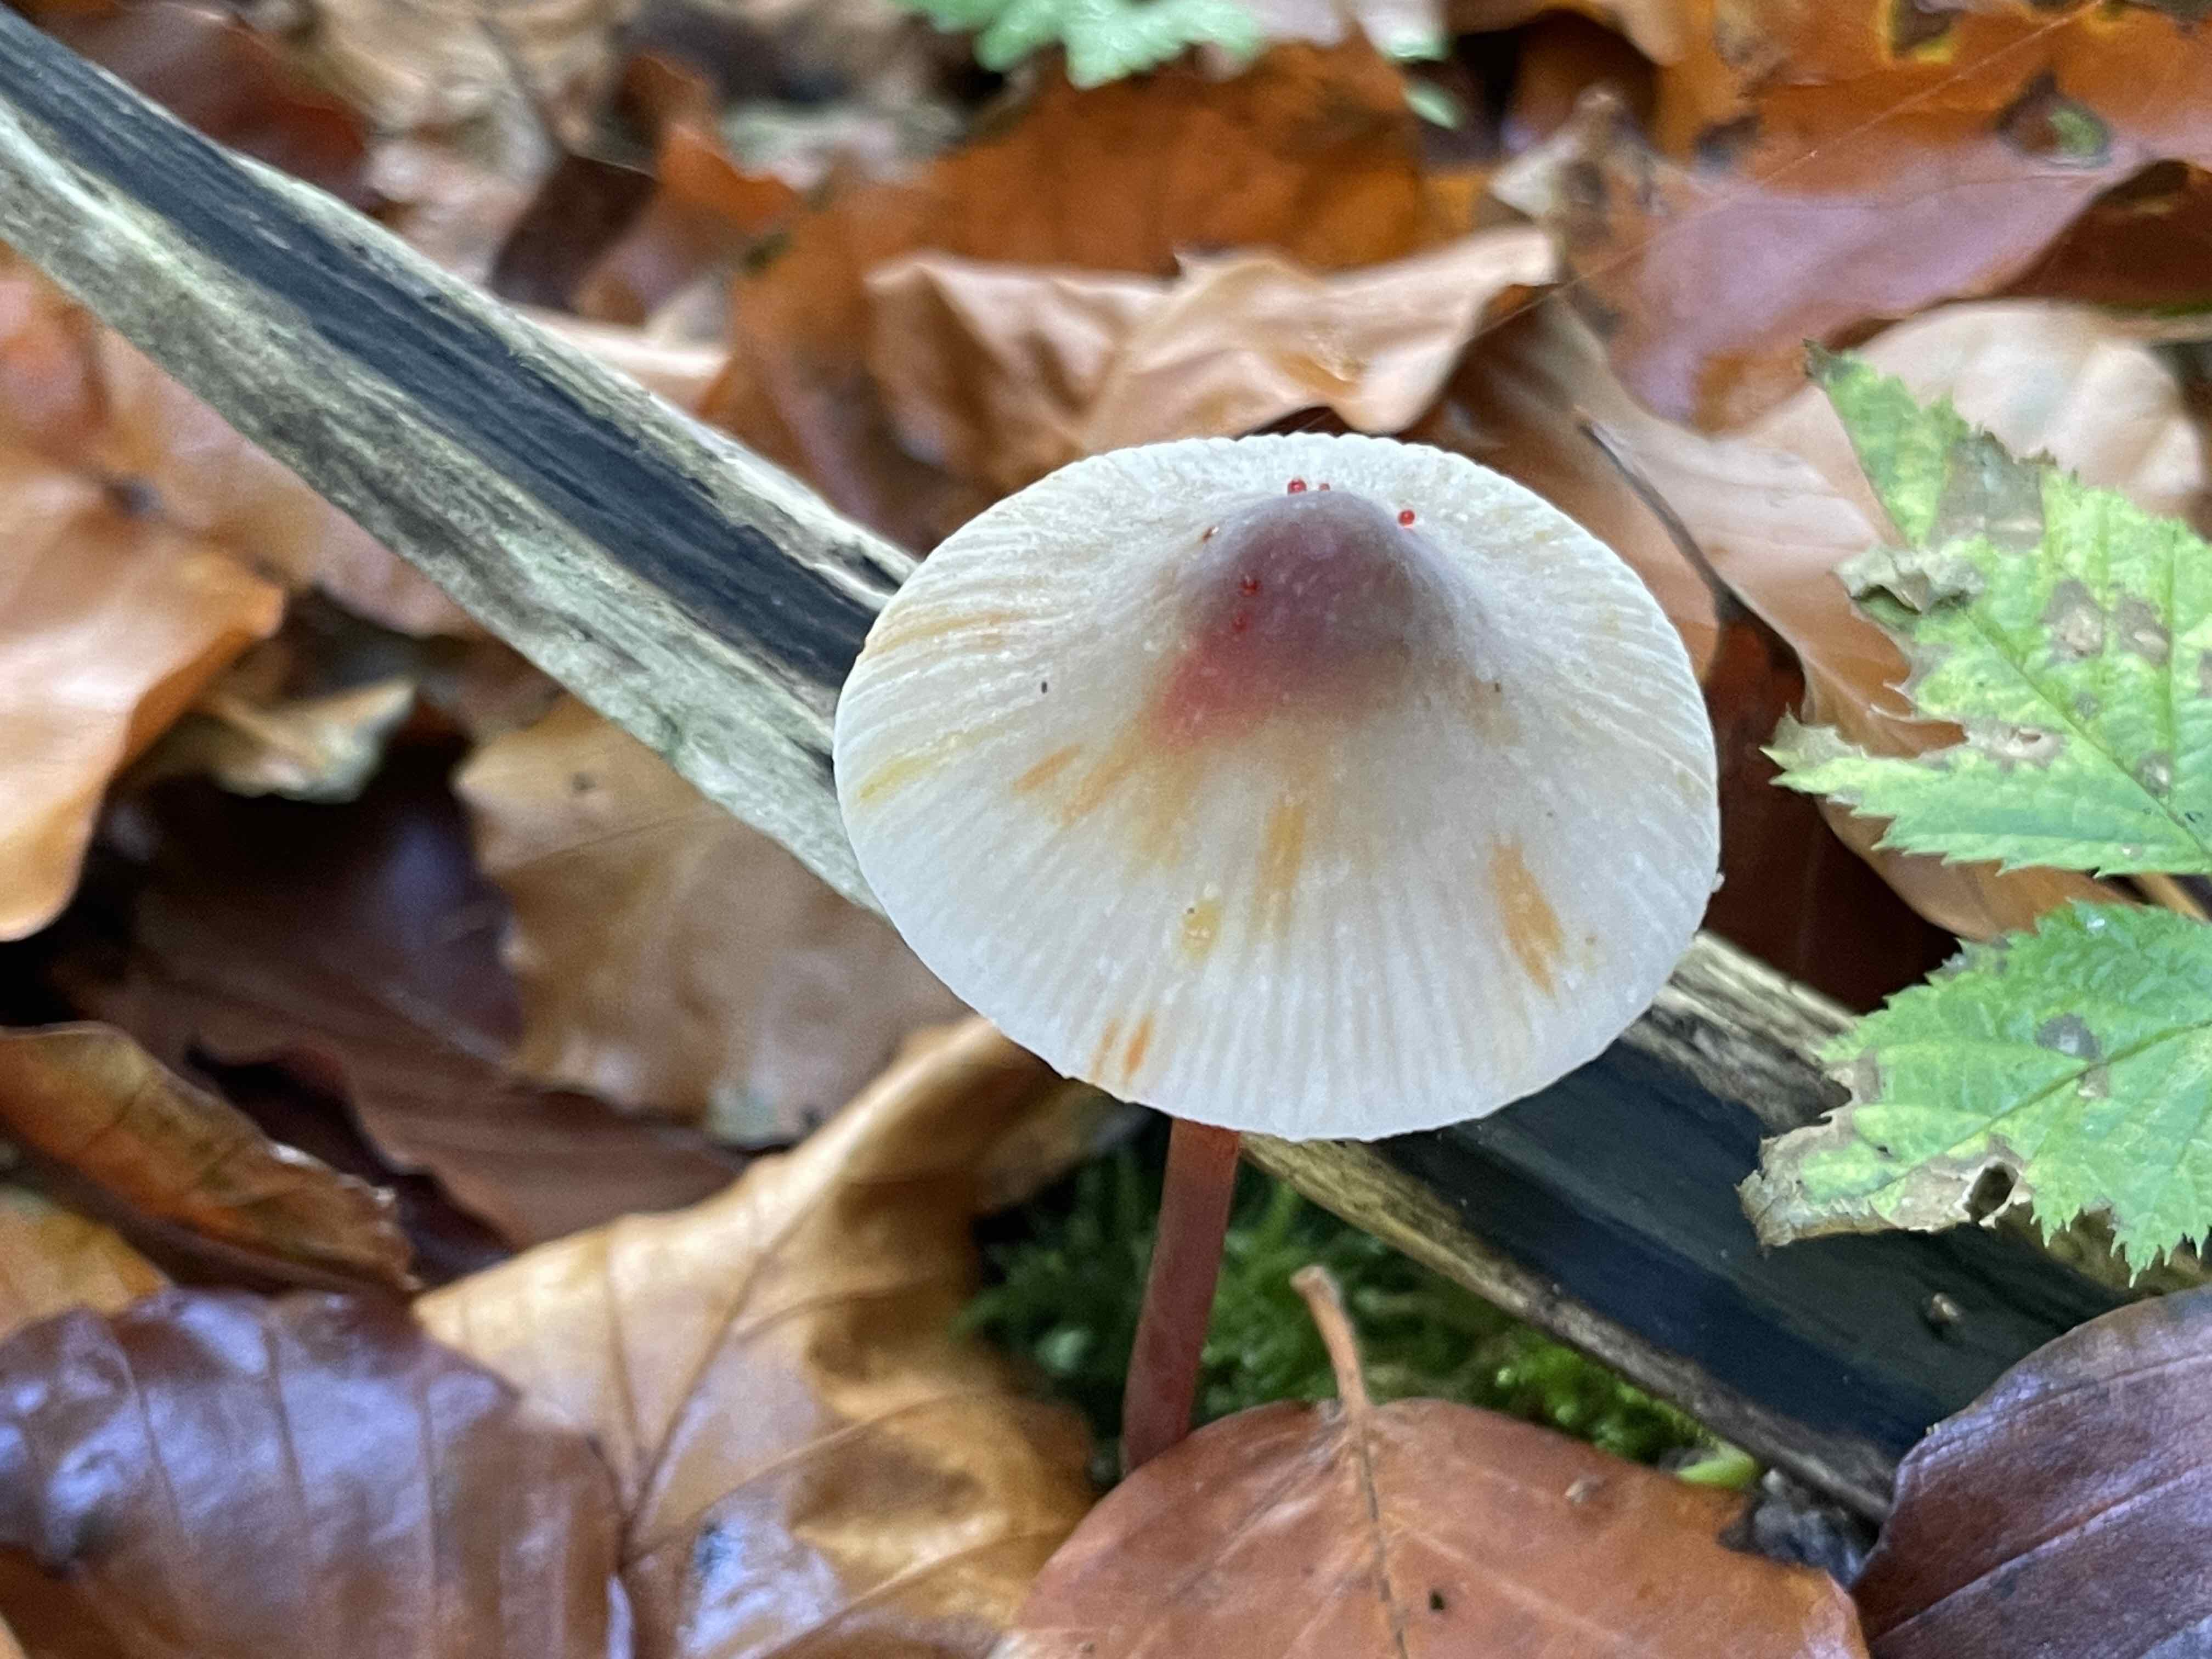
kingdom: Fungi
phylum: Basidiomycota
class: Agaricomycetes
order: Agaricales
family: Mycenaceae
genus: Mycena
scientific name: Mycena crocata
